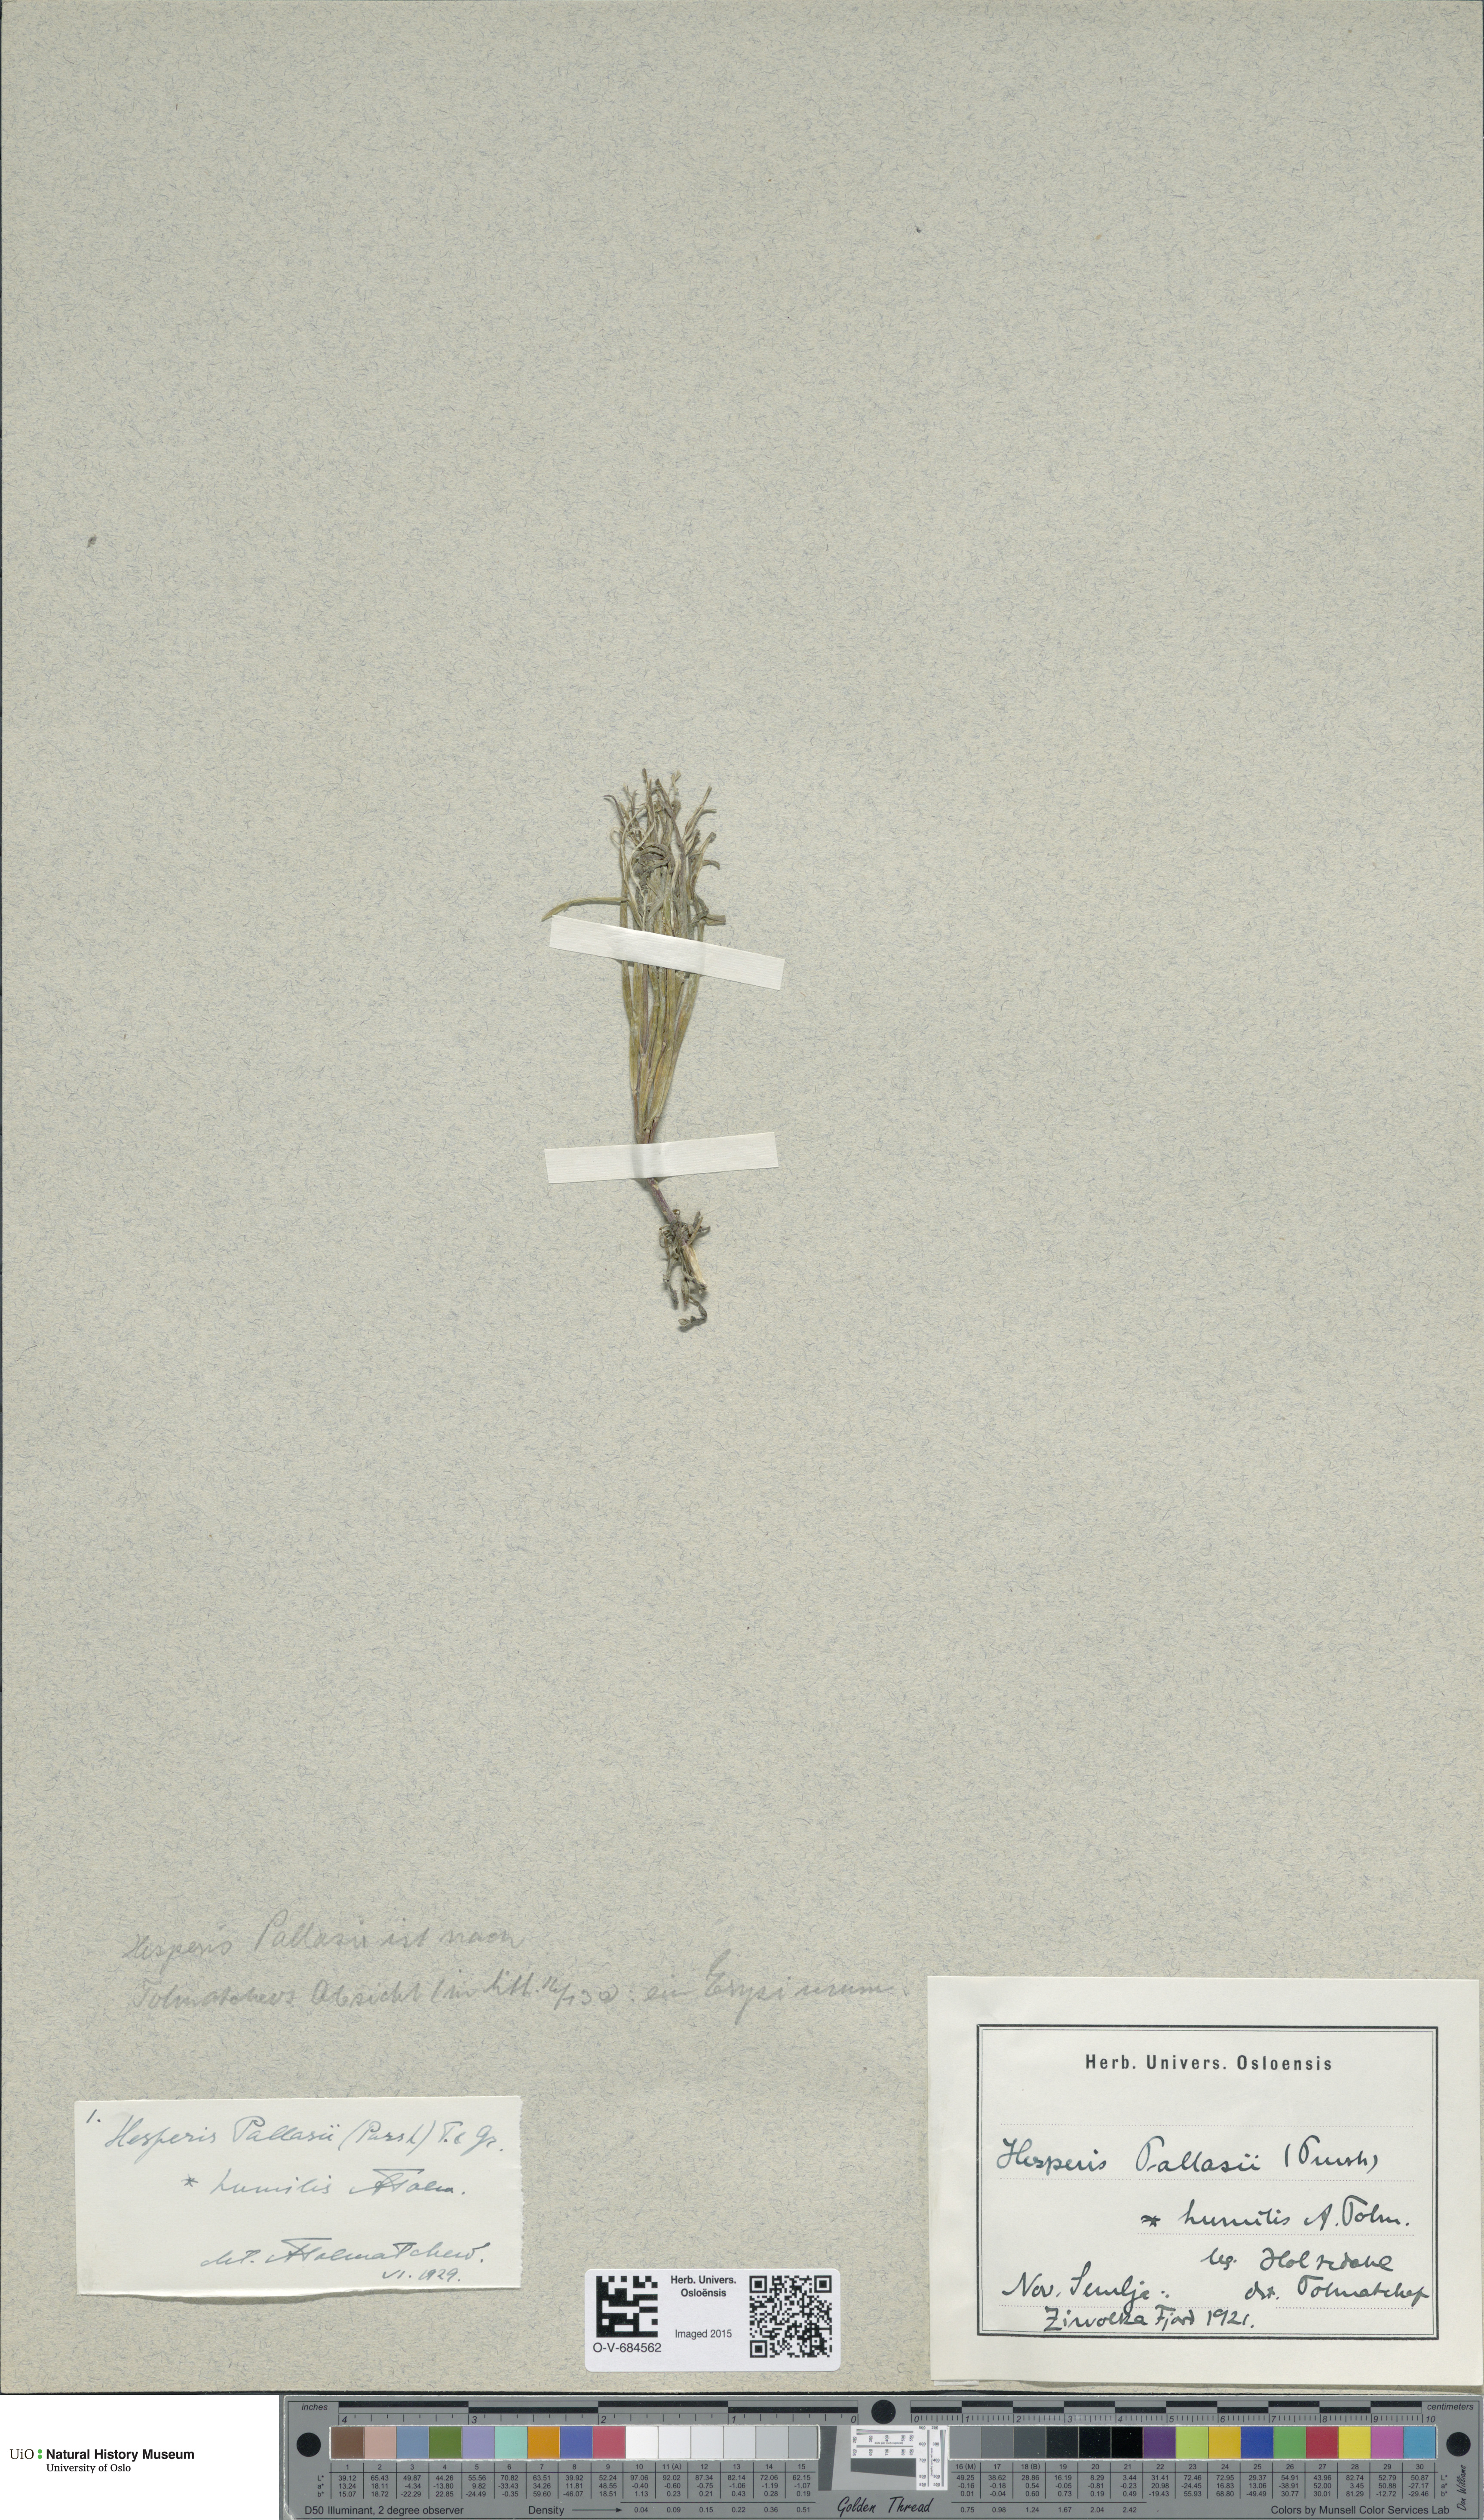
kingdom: Plantae
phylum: Tracheophyta
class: Magnoliopsida
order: Brassicales
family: Brassicaceae
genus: Erysimum
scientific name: Erysimum redowskii
